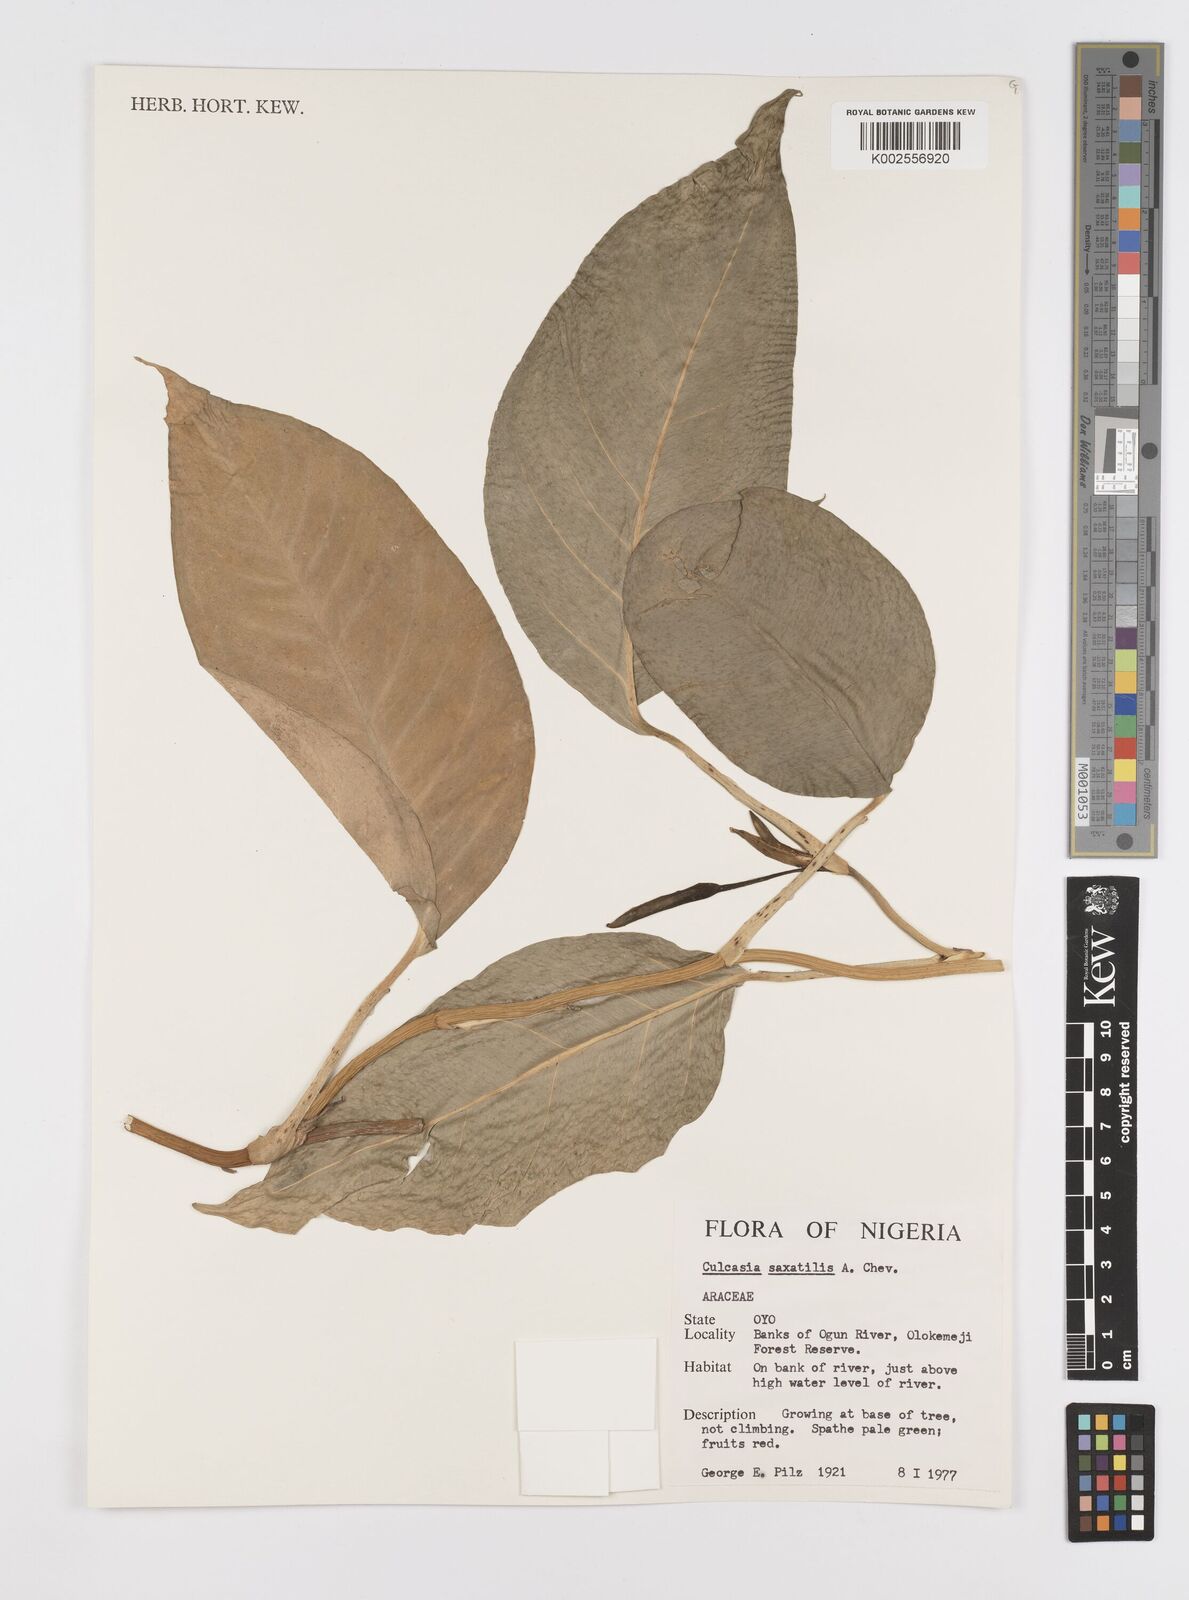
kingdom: Plantae
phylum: Tracheophyta
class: Liliopsida
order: Alismatales
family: Araceae
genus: Culcasia
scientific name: Culcasia scandens
